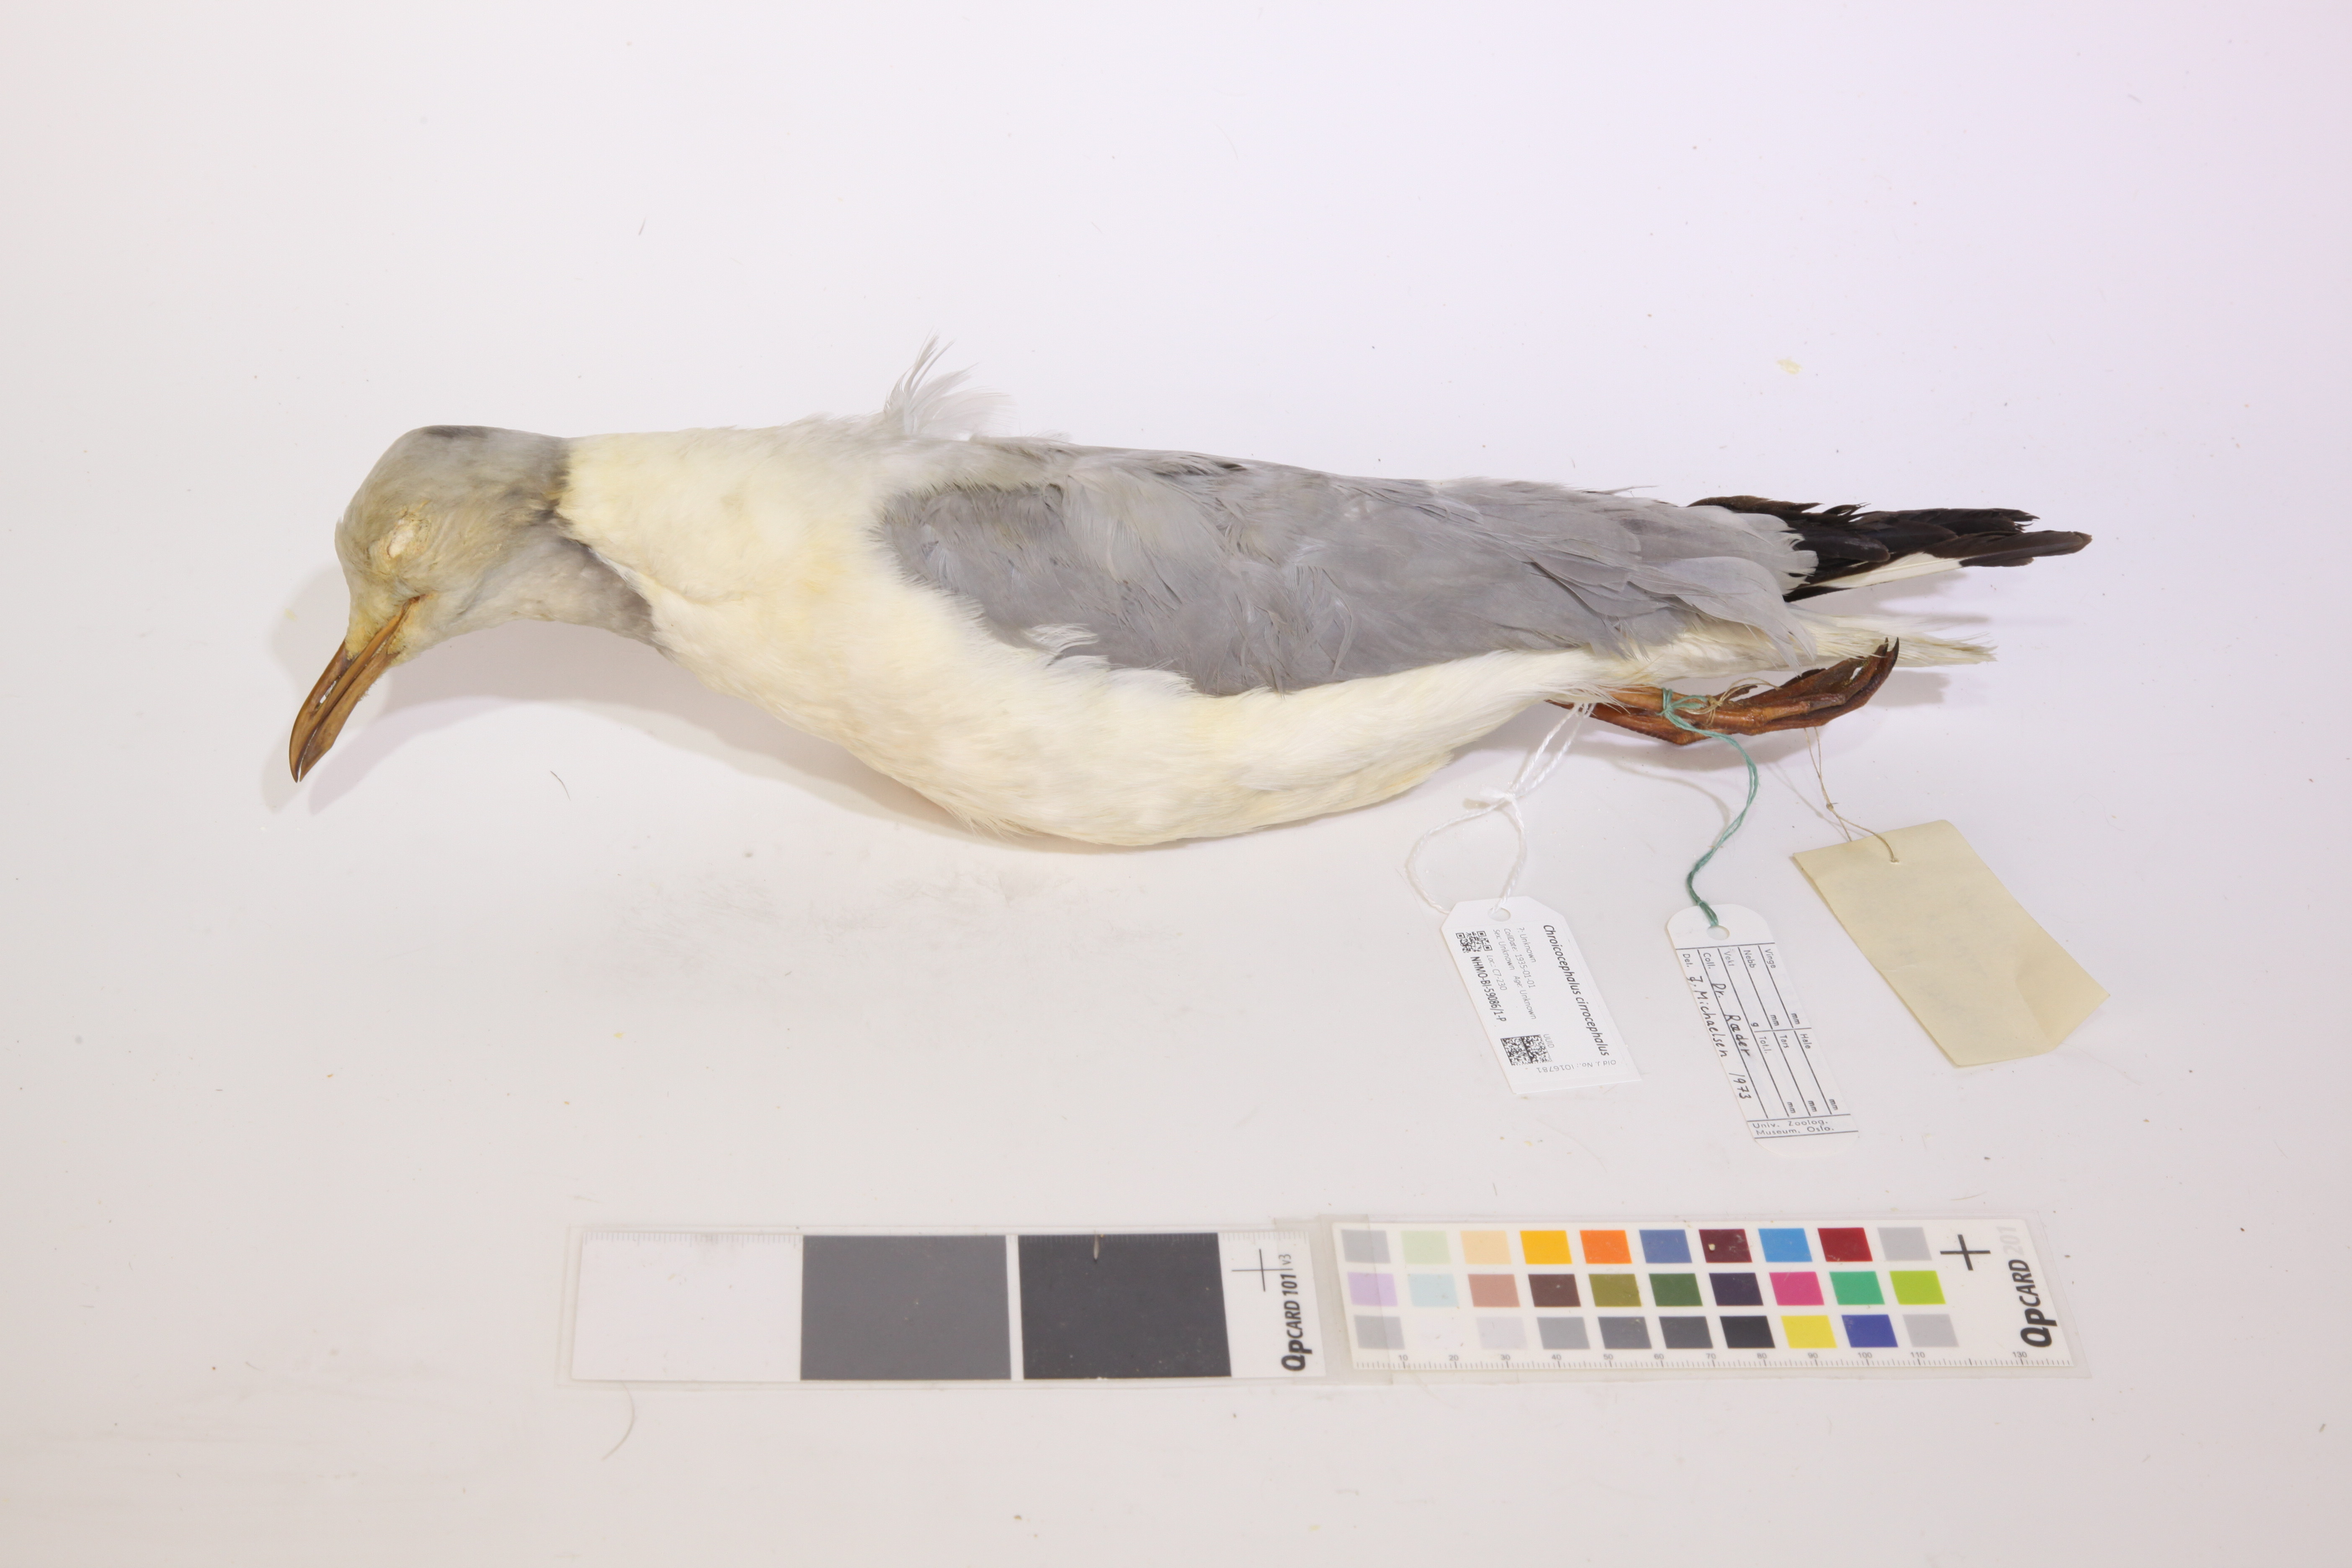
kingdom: Animalia
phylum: Chordata
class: Aves
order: Charadriiformes
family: Laridae
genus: Chroicocephalus
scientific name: Chroicocephalus cirrocephalus
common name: Grey-headed gull
